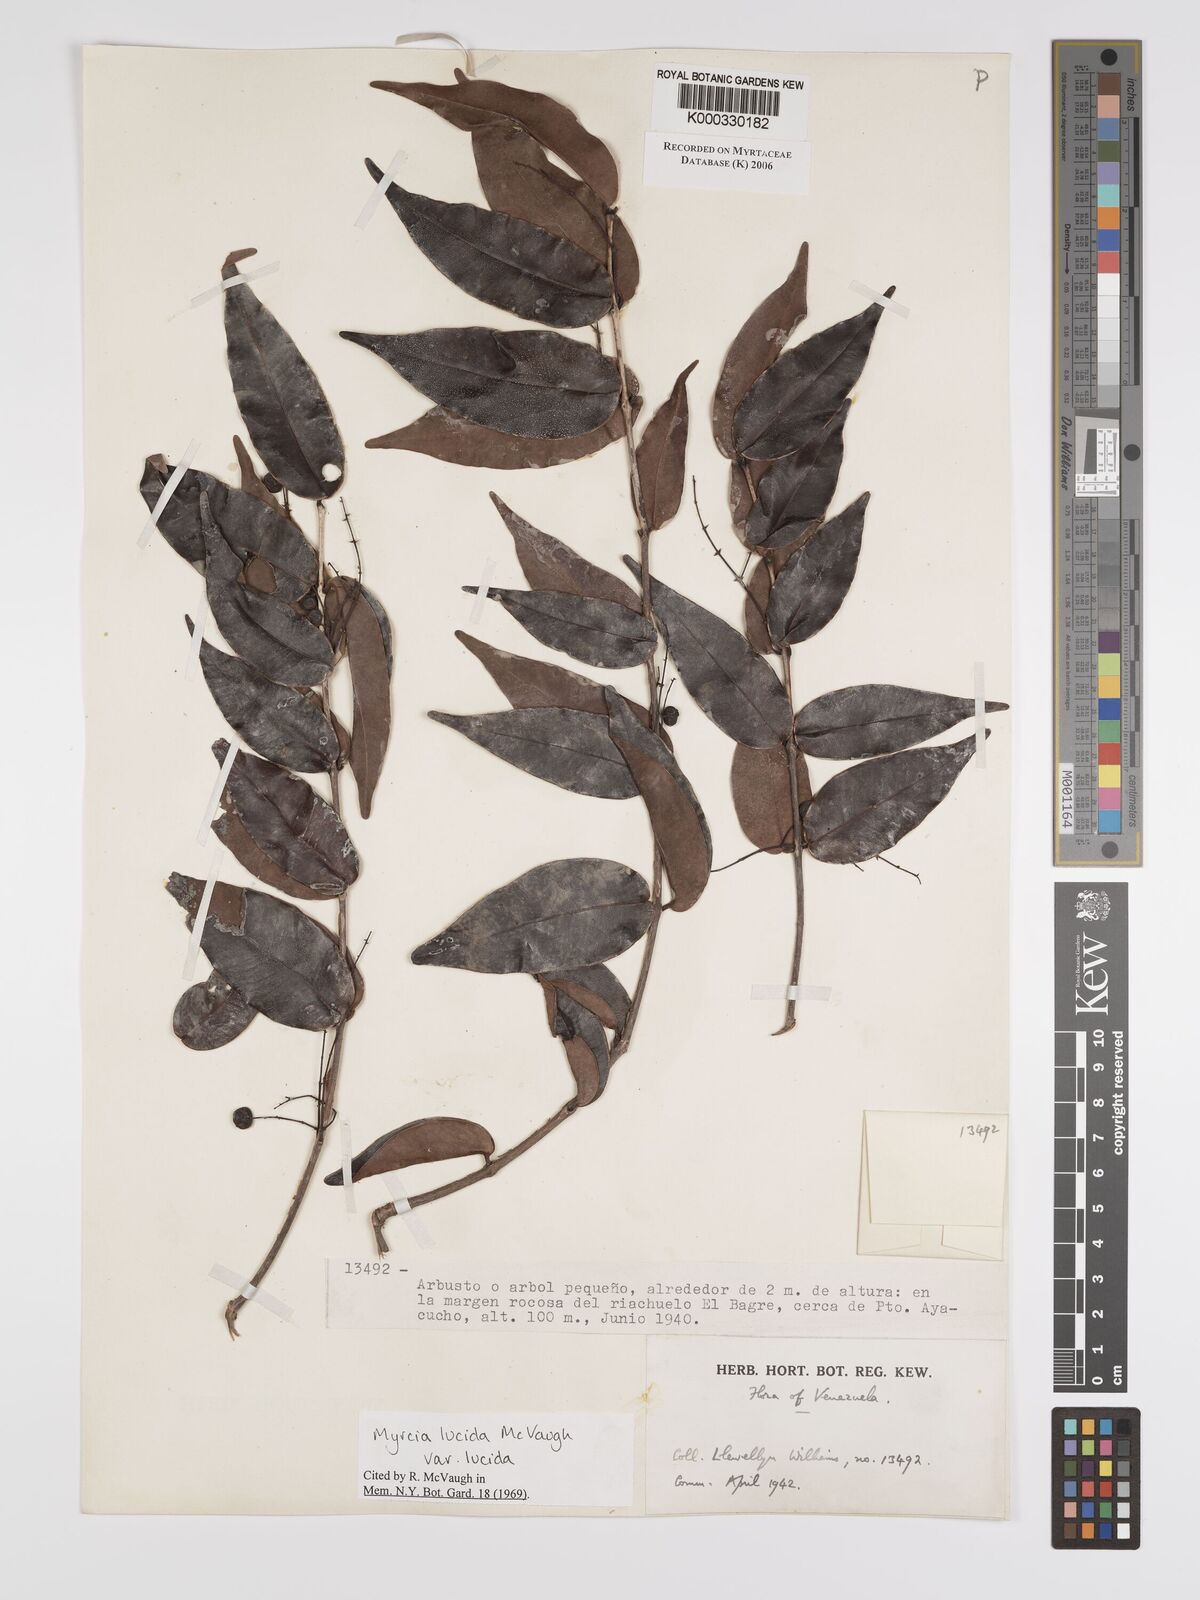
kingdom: Plantae
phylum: Tracheophyta
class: Magnoliopsida
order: Myrtales
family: Myrtaceae
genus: Myrcia
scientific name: Myrcia inaequiloba
